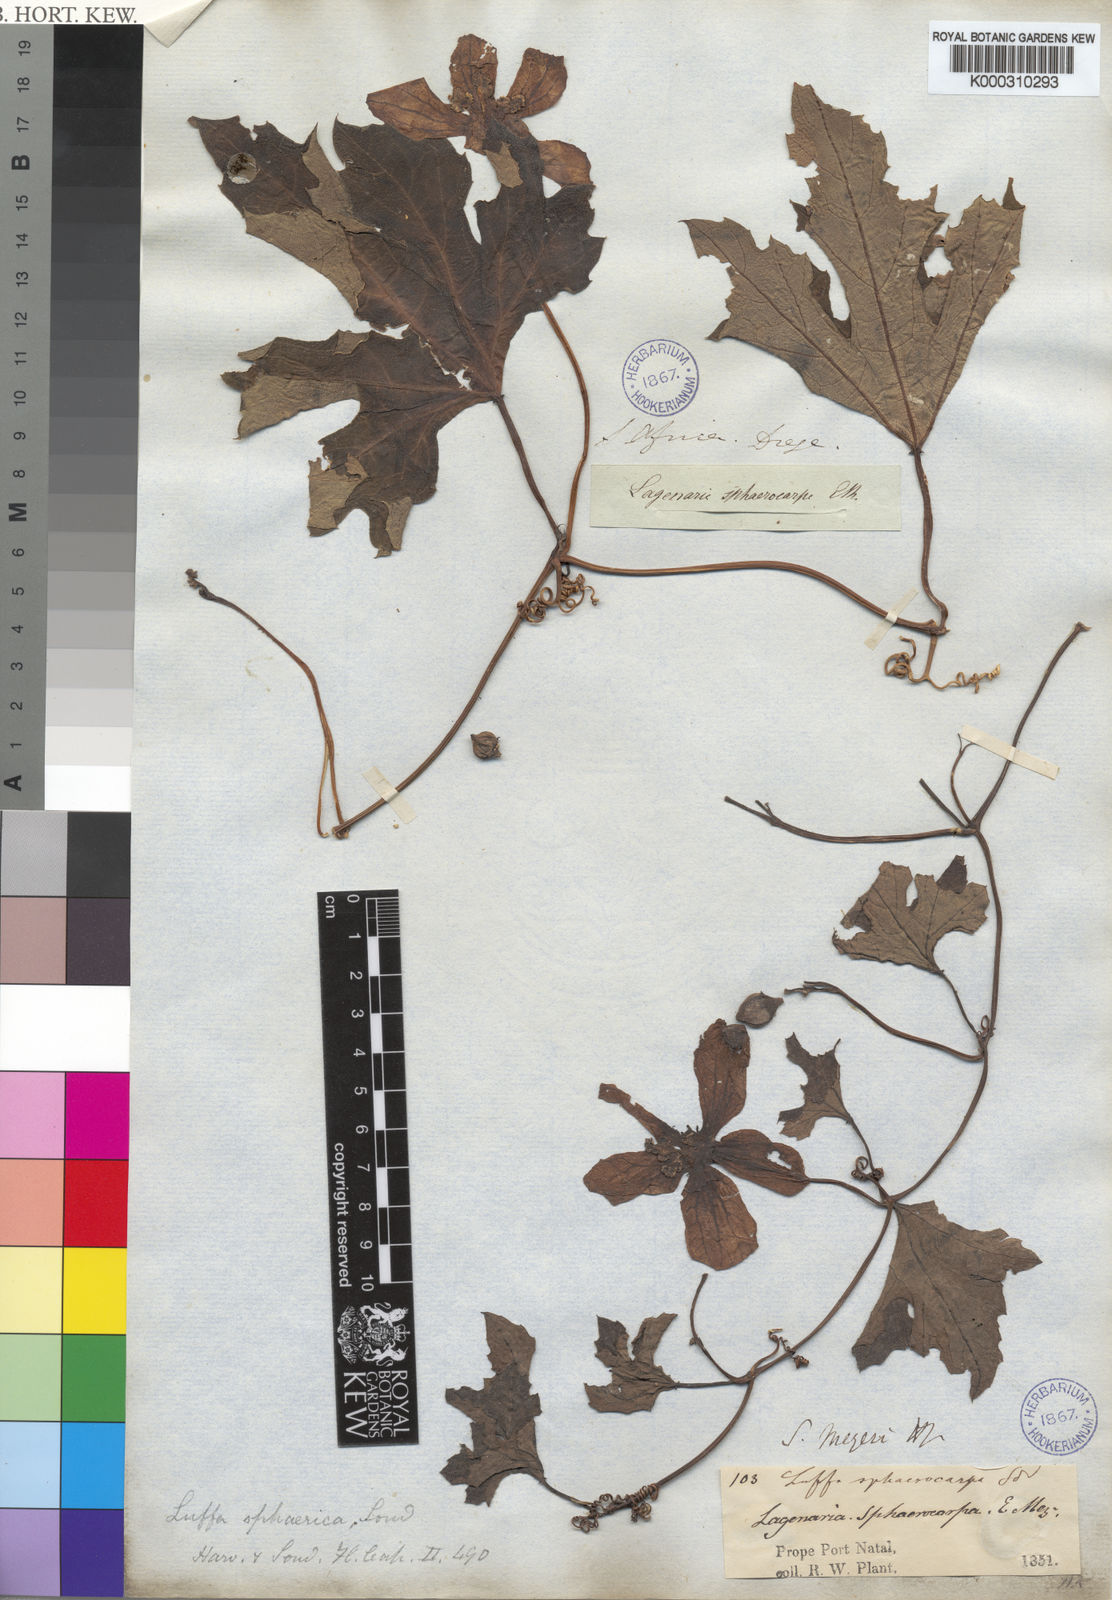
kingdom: Plantae
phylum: Tracheophyta
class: Magnoliopsida
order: Cucurbitales
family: Cucurbitaceae
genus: Lagenaria
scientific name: Lagenaria
